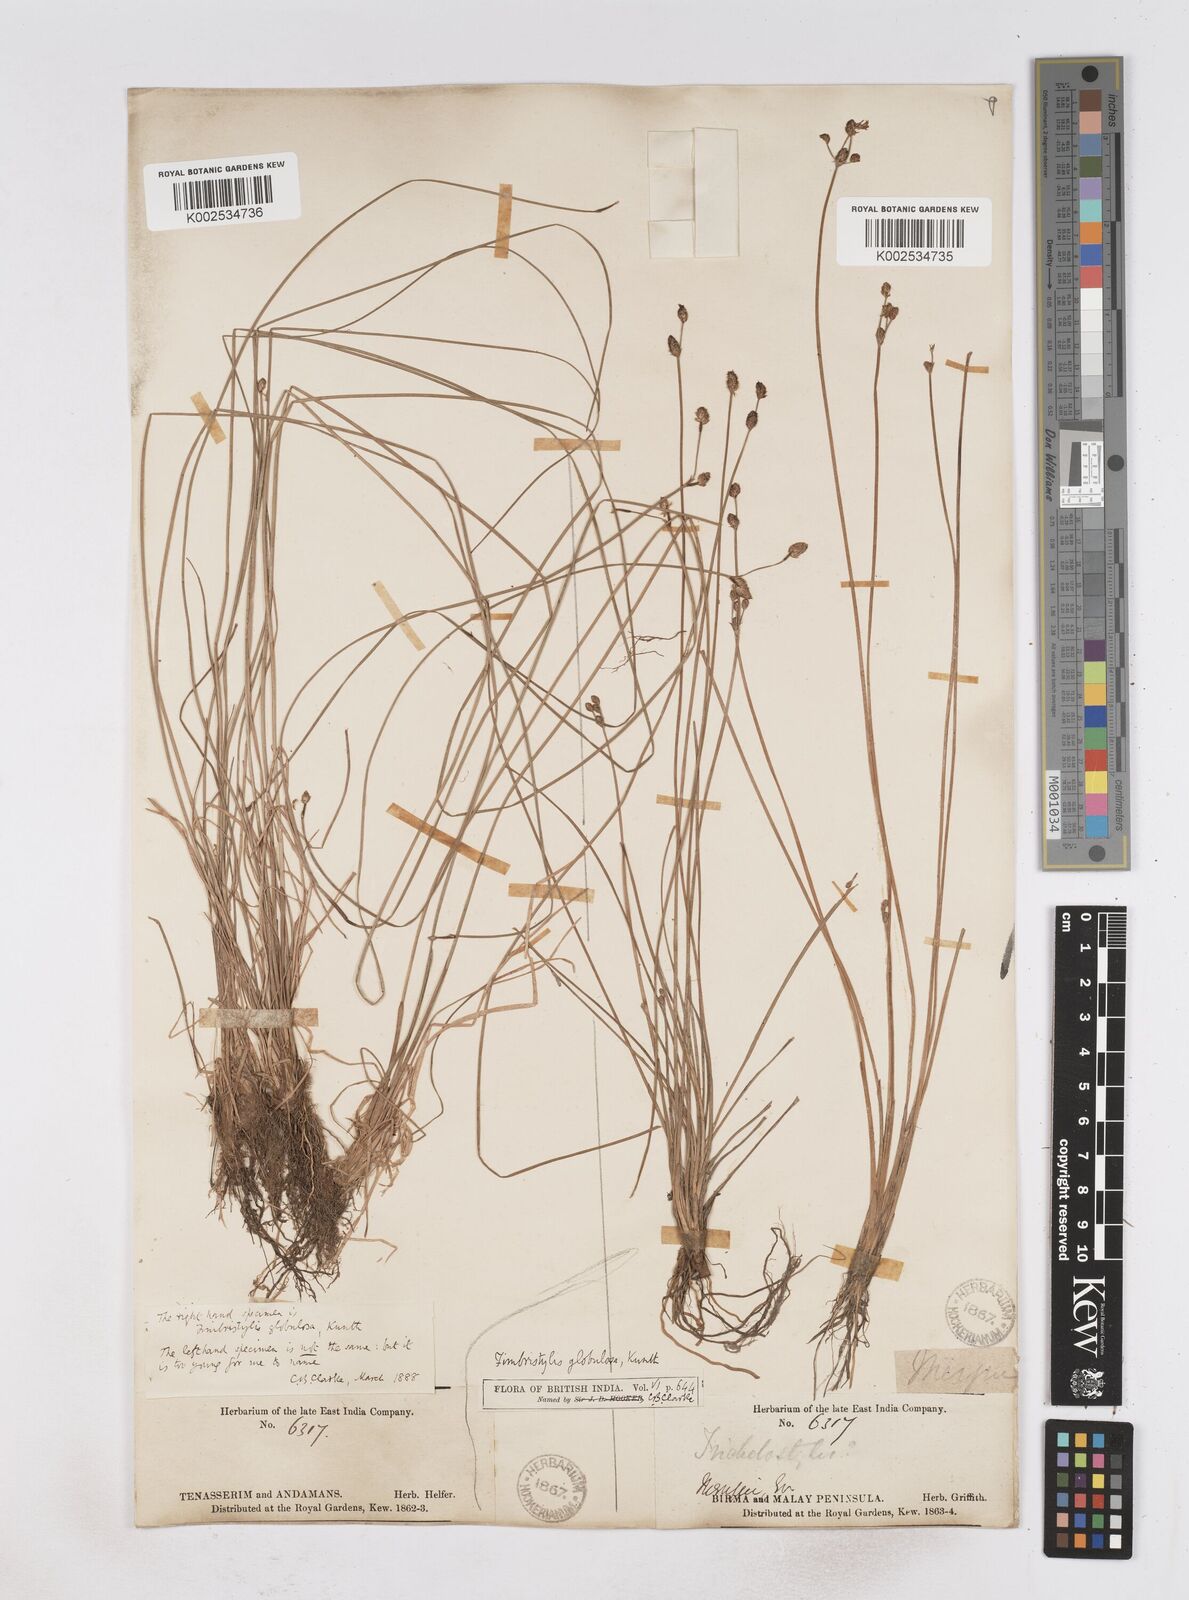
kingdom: Plantae
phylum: Tracheophyta
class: Liliopsida
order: Poales
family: Cyperaceae
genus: Fimbristylis
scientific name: Fimbristylis umbellaris
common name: Globular fimbristylis
